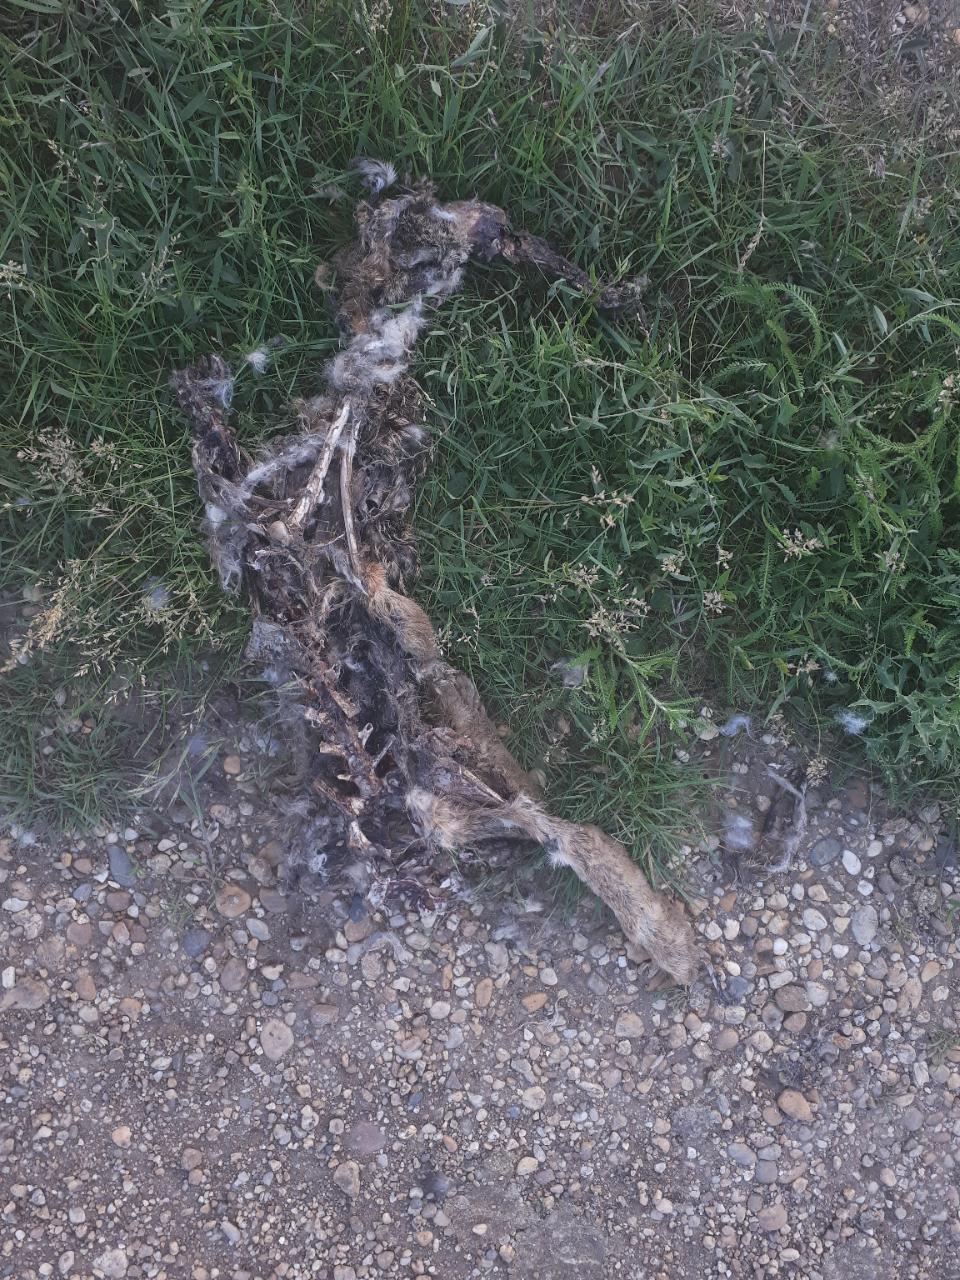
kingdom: Animalia
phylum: Chordata
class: Mammalia
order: Lagomorpha
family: Leporidae
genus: Lepus
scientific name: Lepus europaeus
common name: European hare
